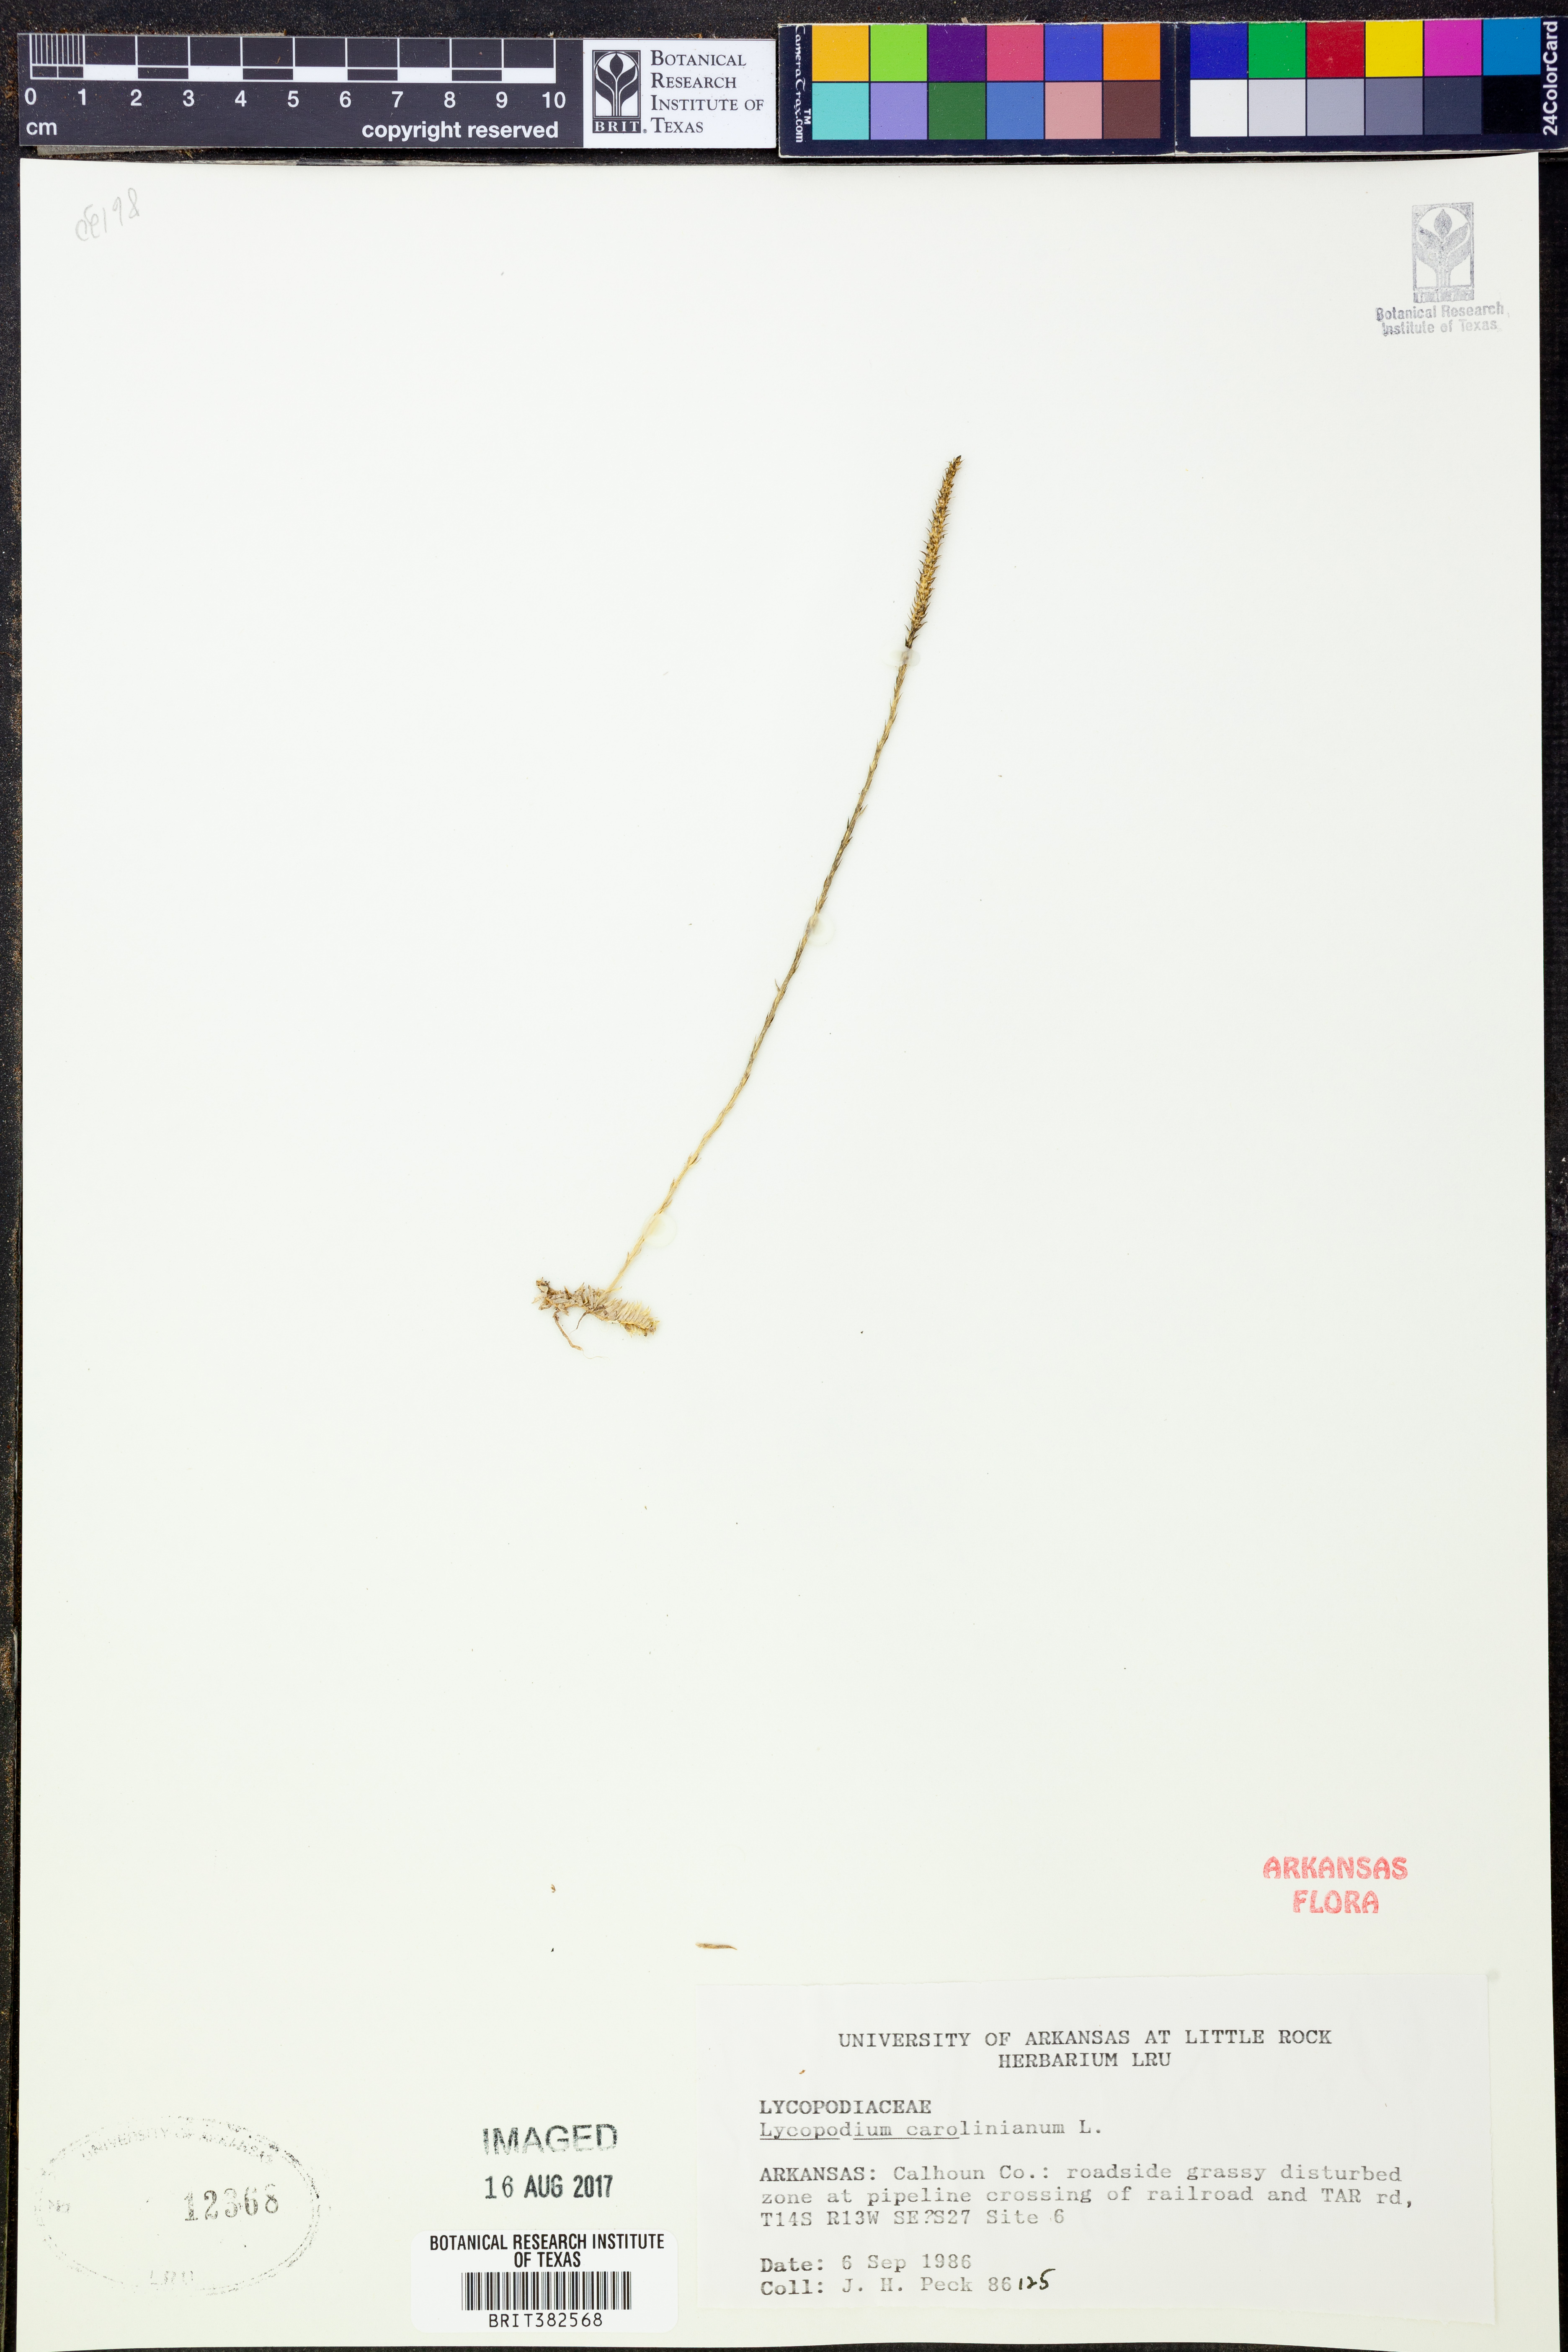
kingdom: Plantae
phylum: Tracheophyta
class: Lycopodiopsida
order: Lycopodiales
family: Lycopodiaceae
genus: Pseudolycopodiella
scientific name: Pseudolycopodiella caroliniana
